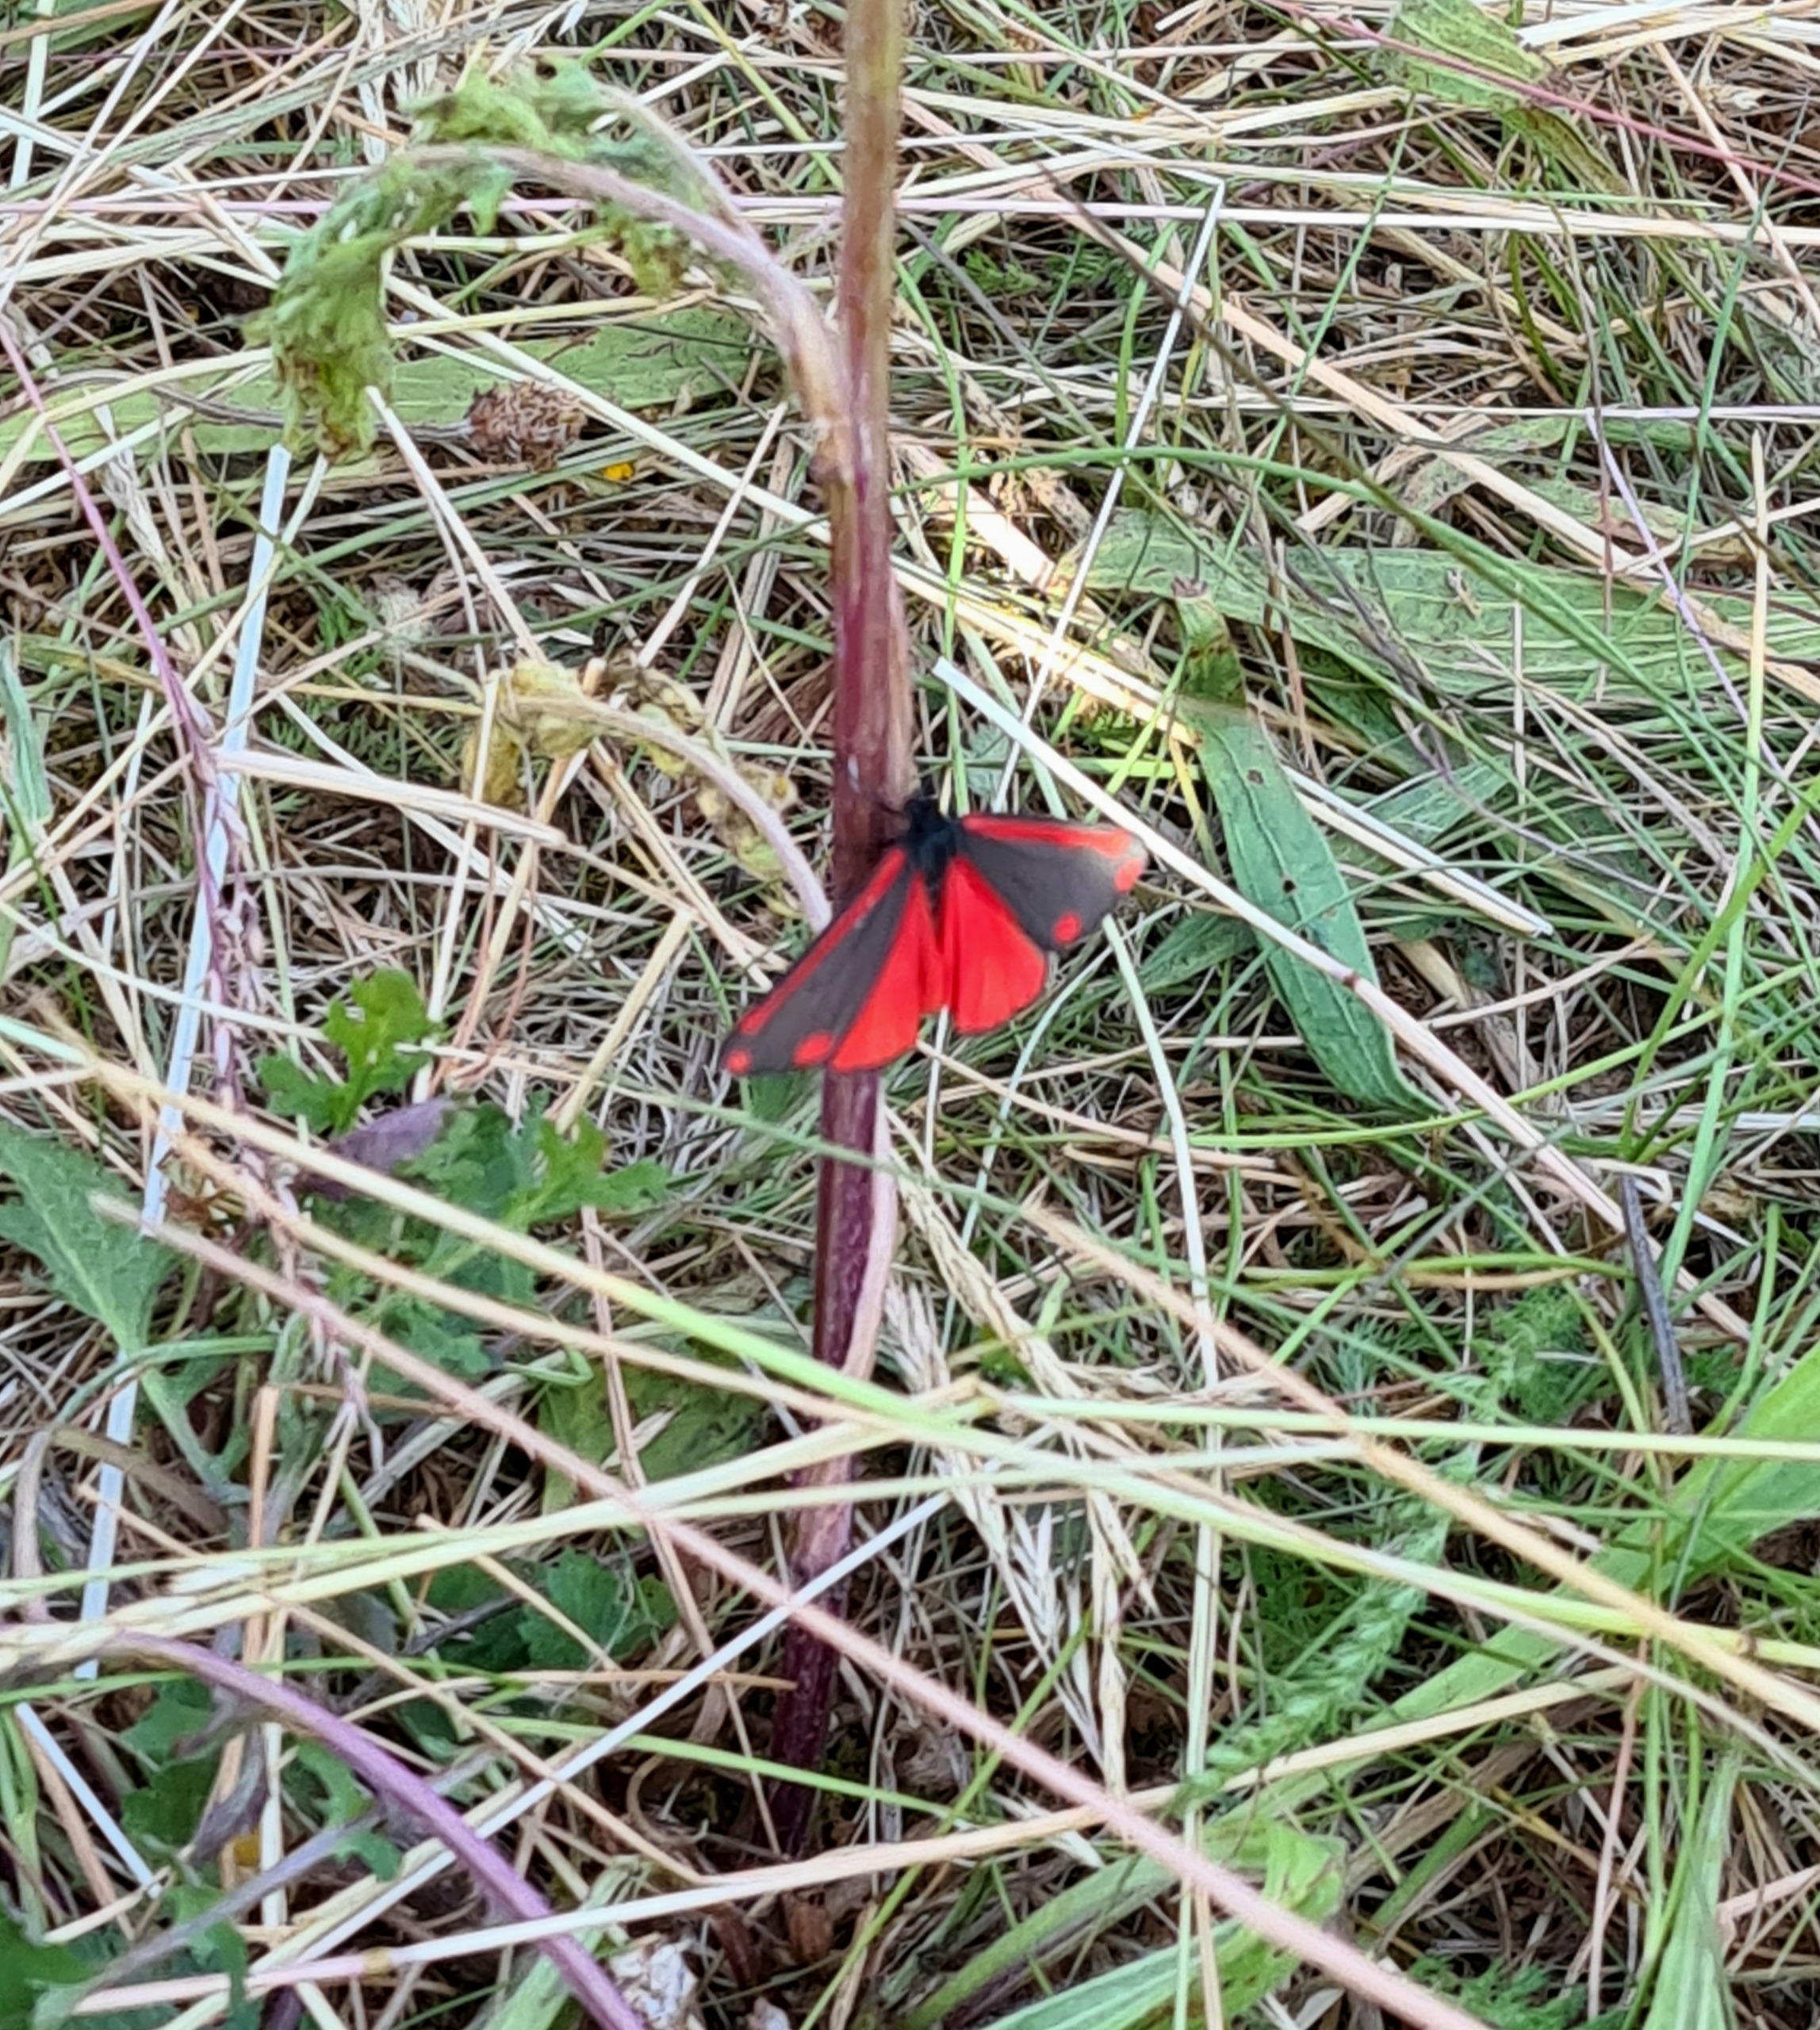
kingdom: Animalia
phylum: Arthropoda
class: Insecta
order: Lepidoptera
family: Erebidae
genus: Tyria
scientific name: Tyria jacobaeae
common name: Blodplet
